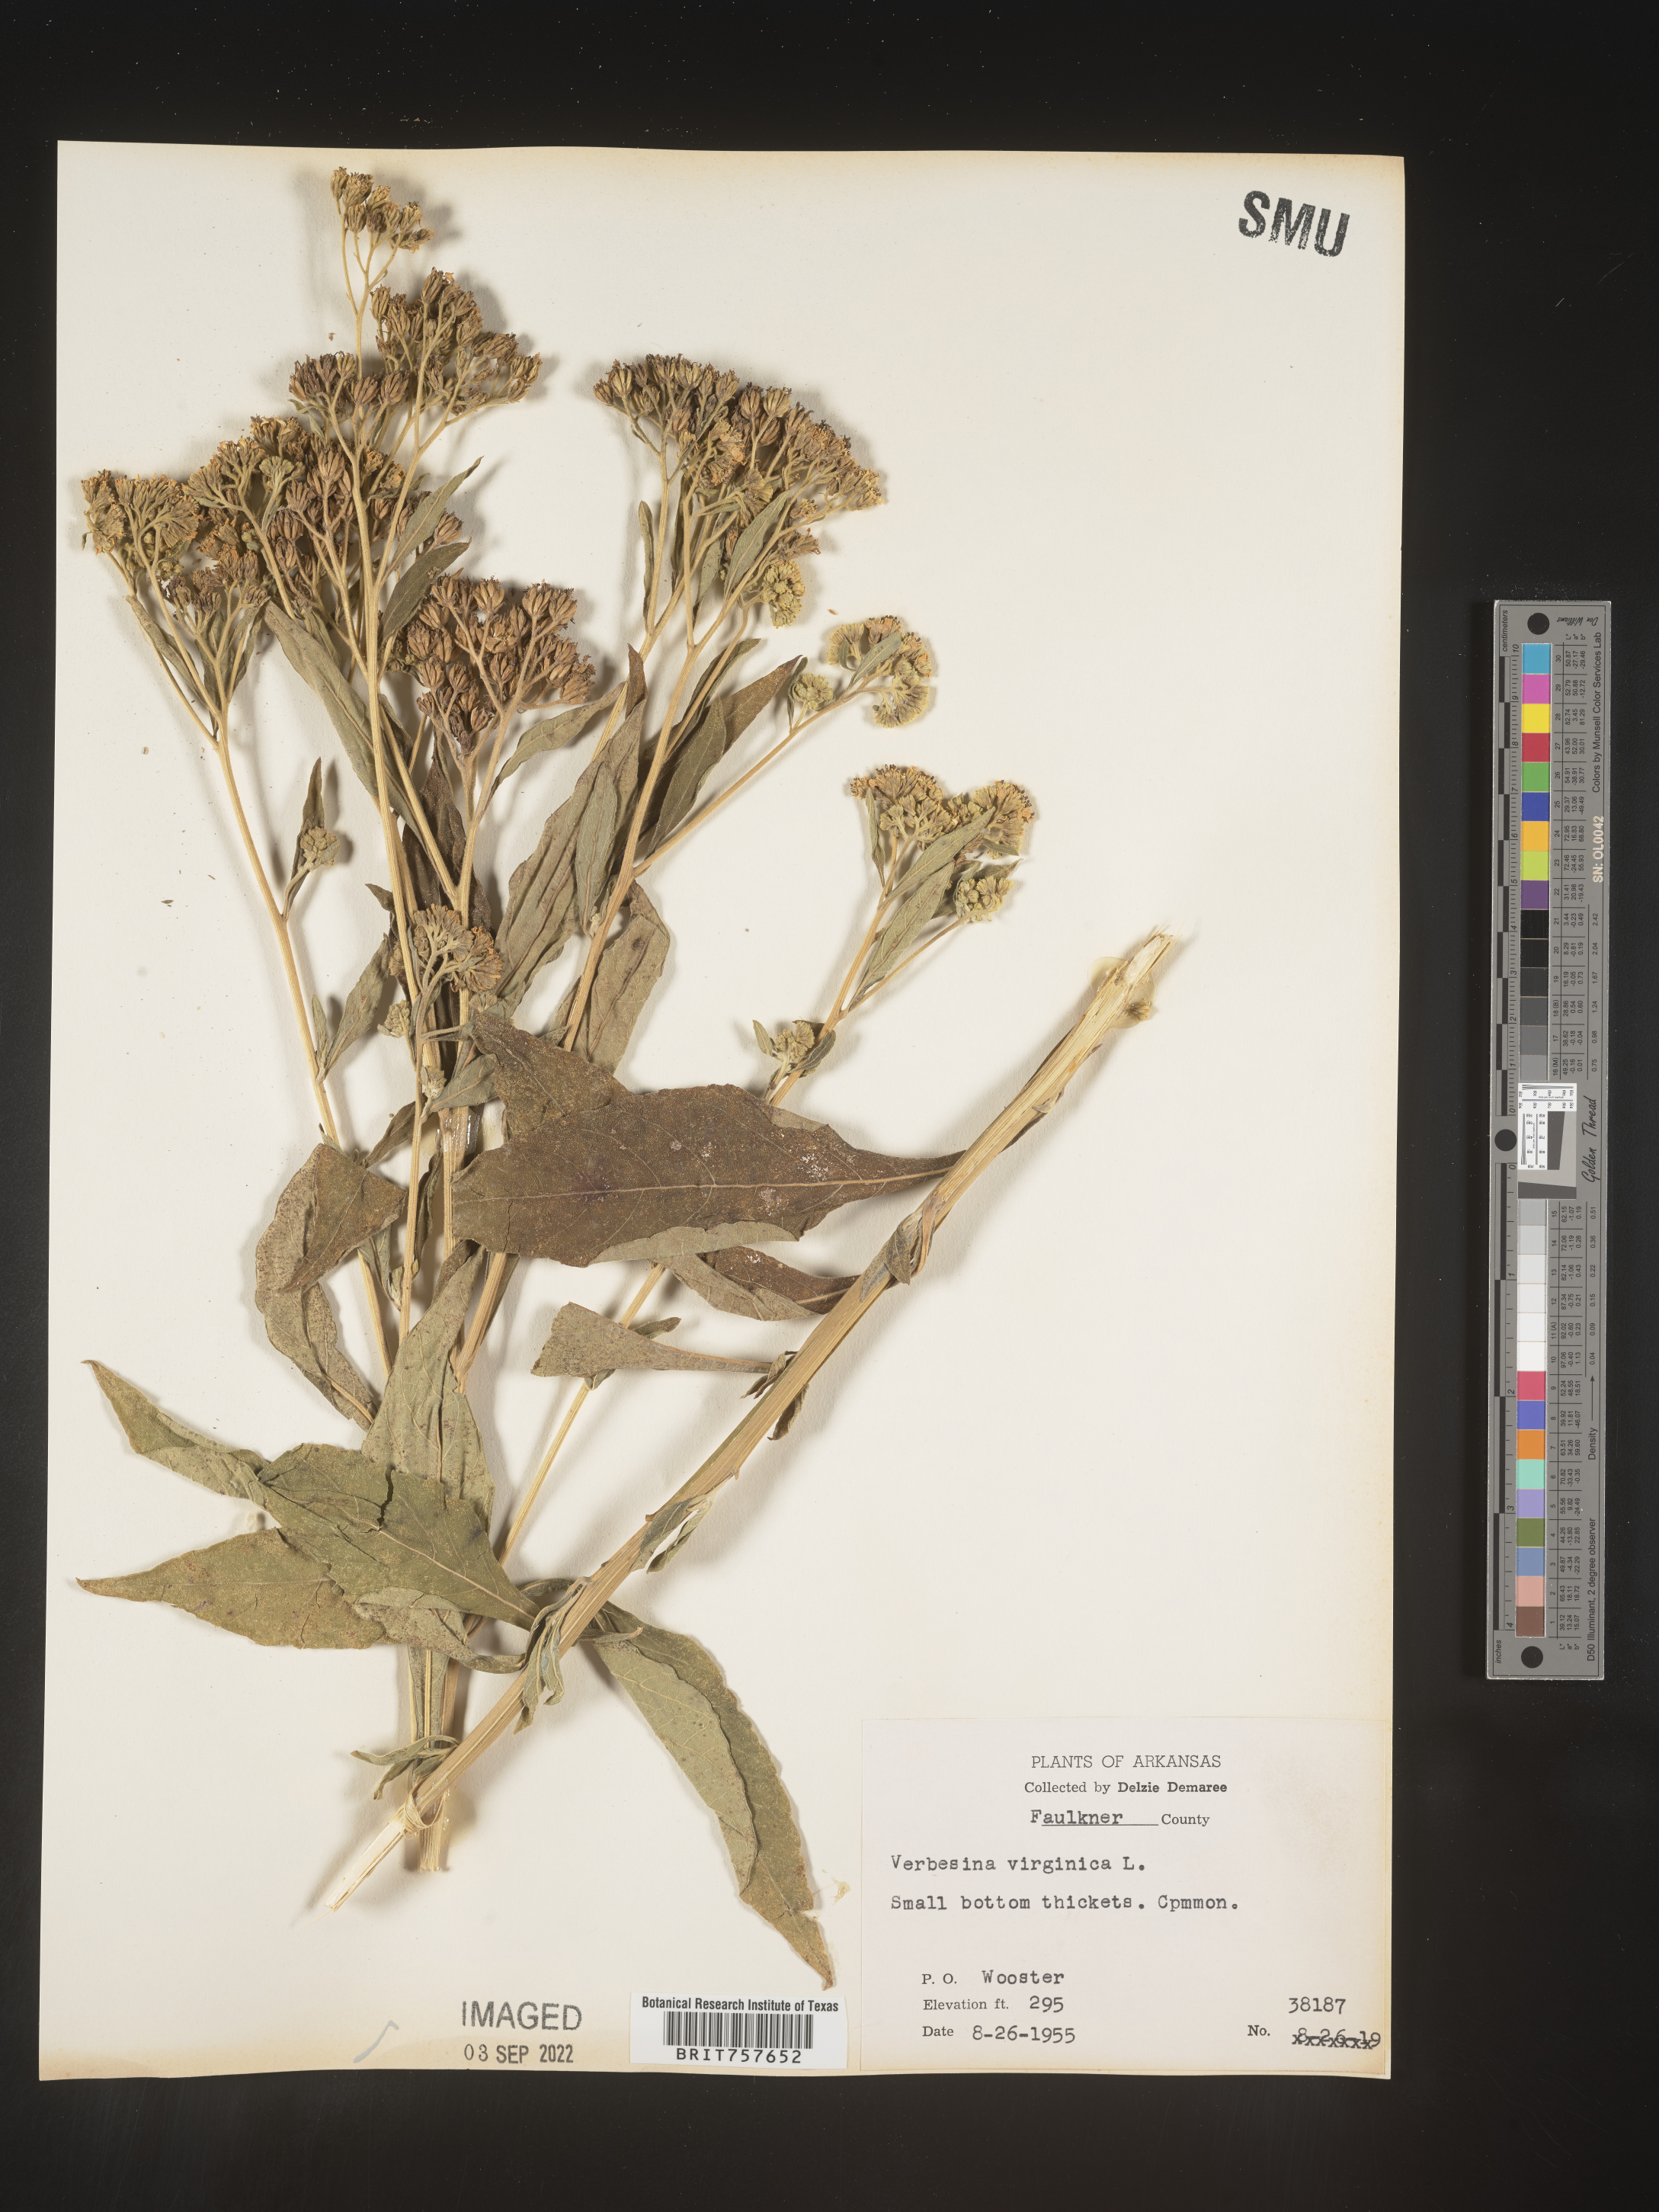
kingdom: Plantae
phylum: Tracheophyta
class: Magnoliopsida
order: Asterales
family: Asteraceae
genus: Verbesina
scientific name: Verbesina virginica
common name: Frostweed
